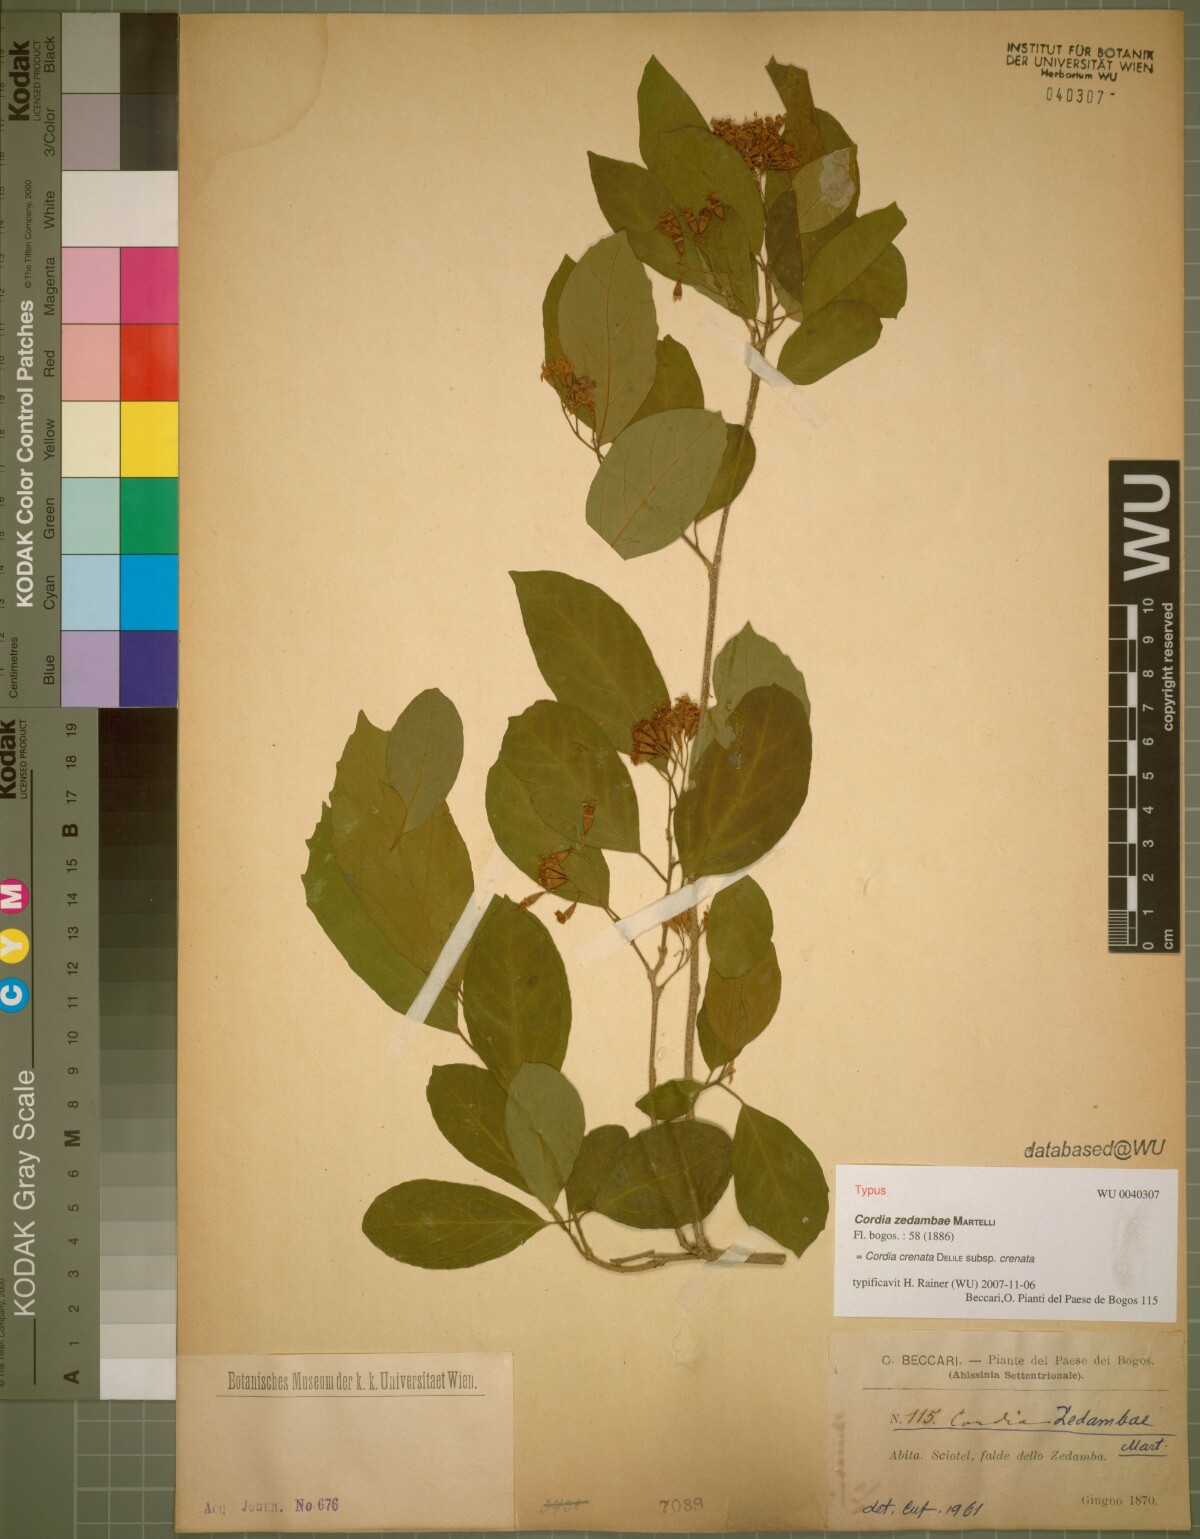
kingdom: Plantae
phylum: Tracheophyta
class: Magnoliopsida
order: Boraginales
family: Cordiaceae
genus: Cordia
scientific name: Cordia crenata
